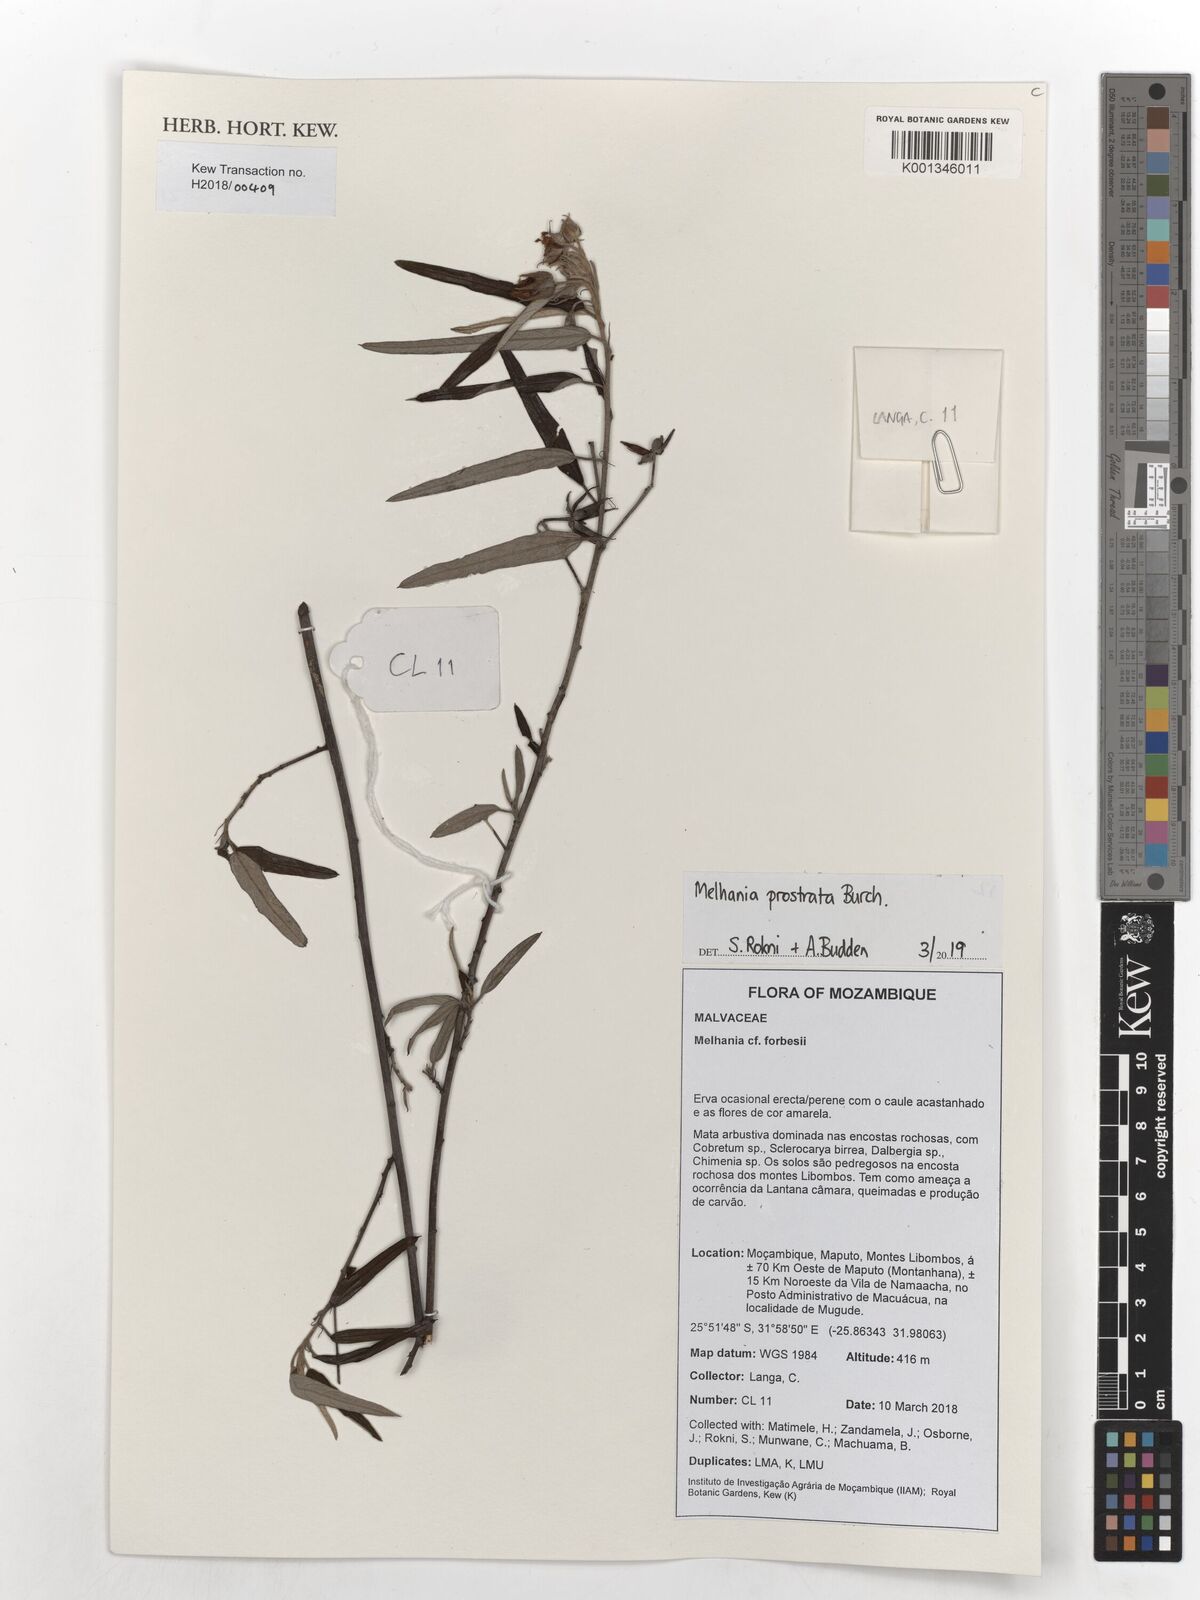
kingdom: Plantae
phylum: Tracheophyta
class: Magnoliopsida
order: Malvales
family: Malvaceae
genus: Melhania
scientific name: Melhania prostrata
